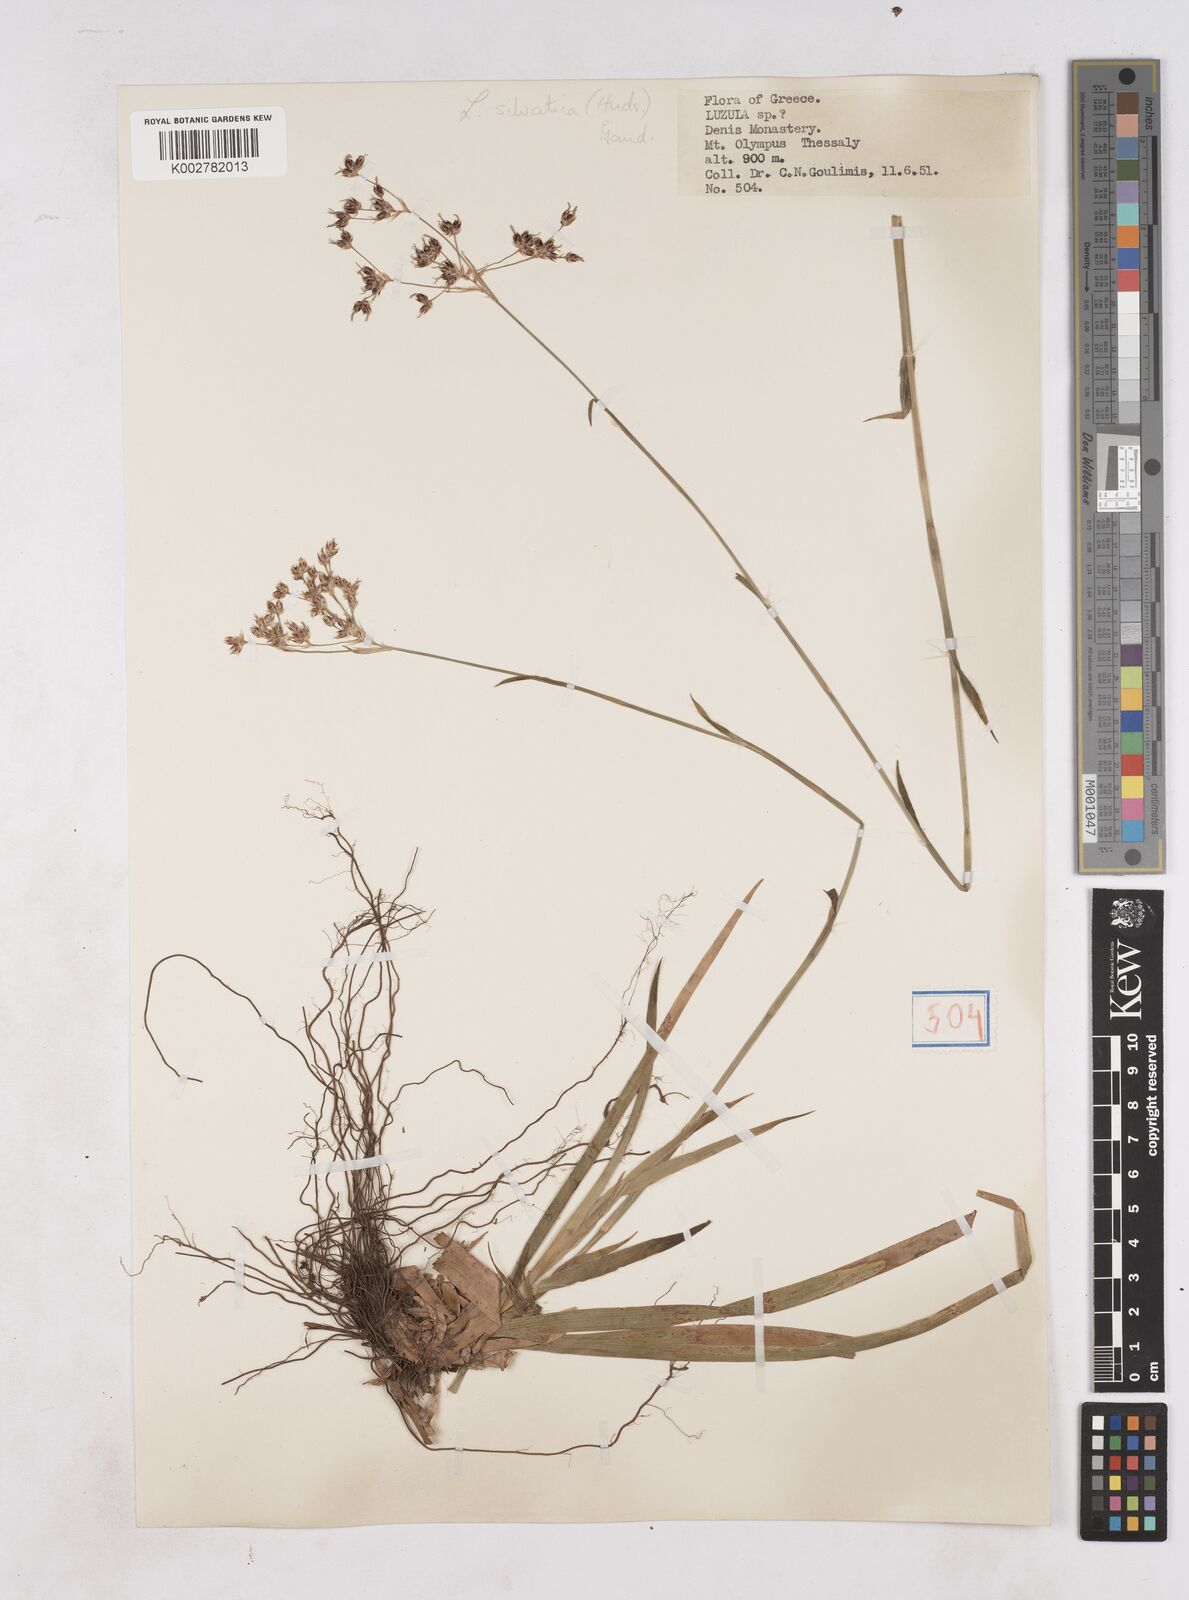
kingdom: Plantae
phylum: Tracheophyta
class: Liliopsida
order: Poales
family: Juncaceae
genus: Luzula
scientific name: Luzula sylvatica
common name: Great wood-rush
